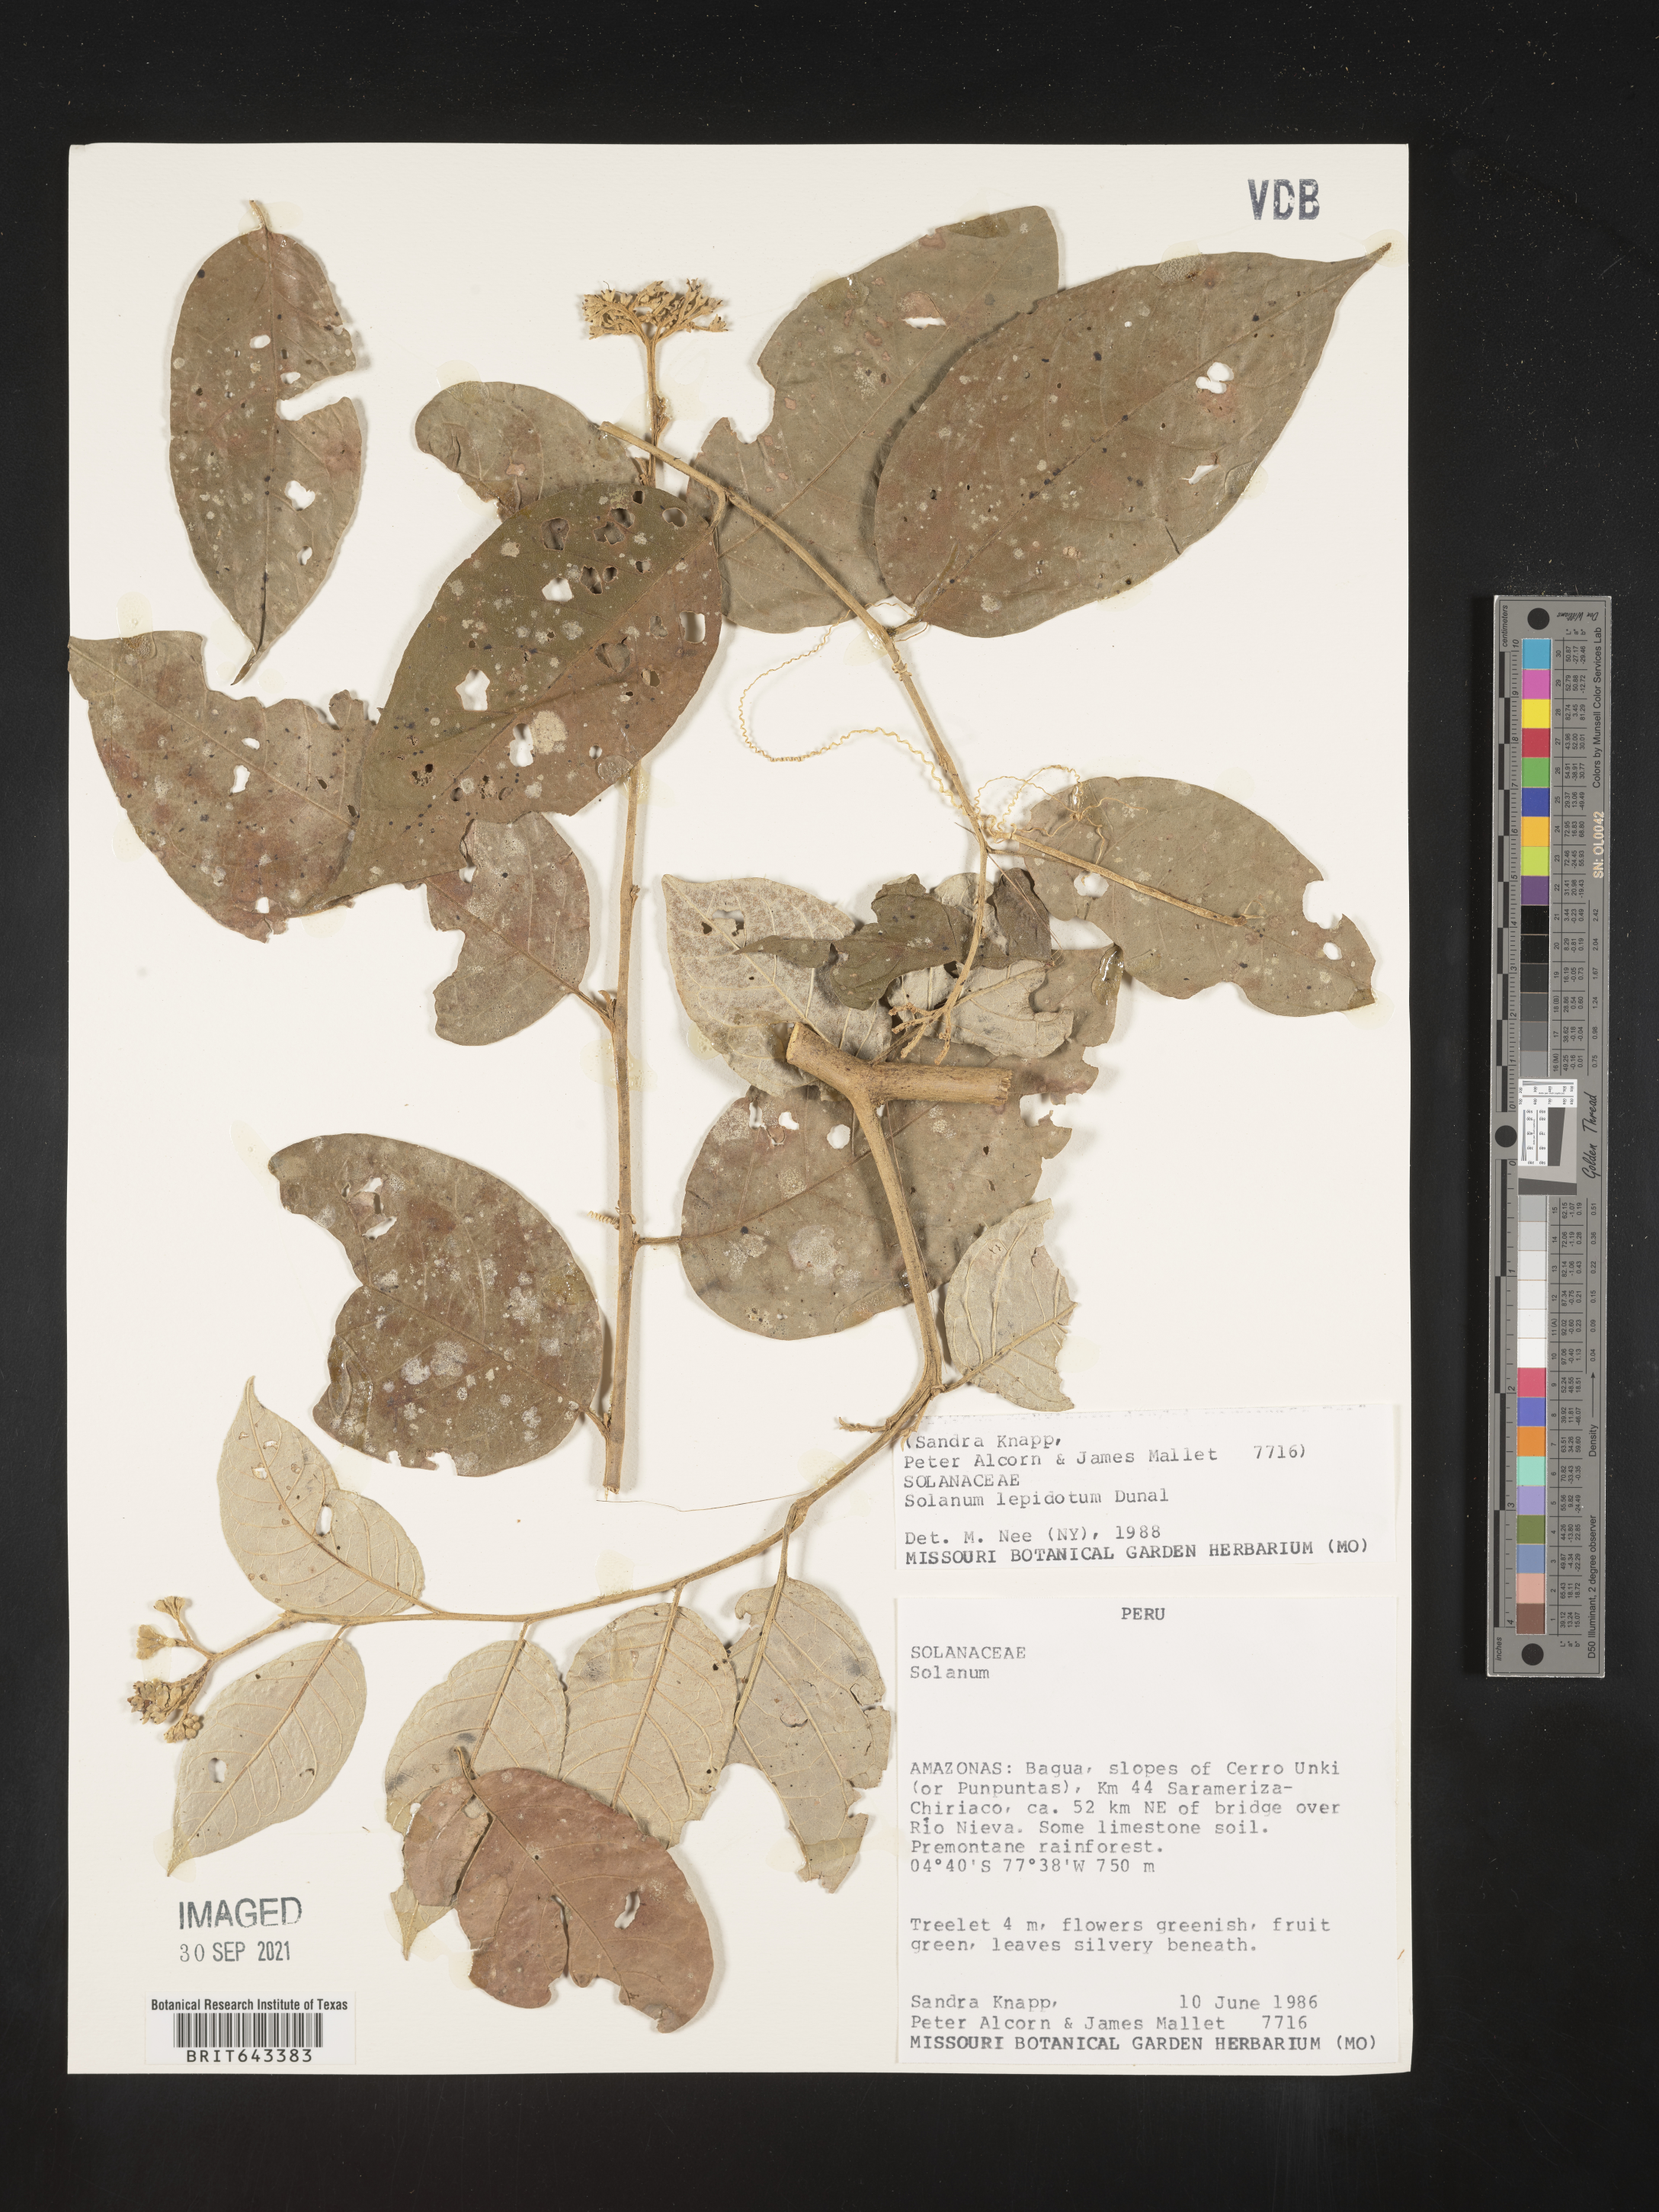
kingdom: Plantae
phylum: Tracheophyta
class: Magnoliopsida
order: Solanales
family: Solanaceae
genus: Solanum
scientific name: Solanum
